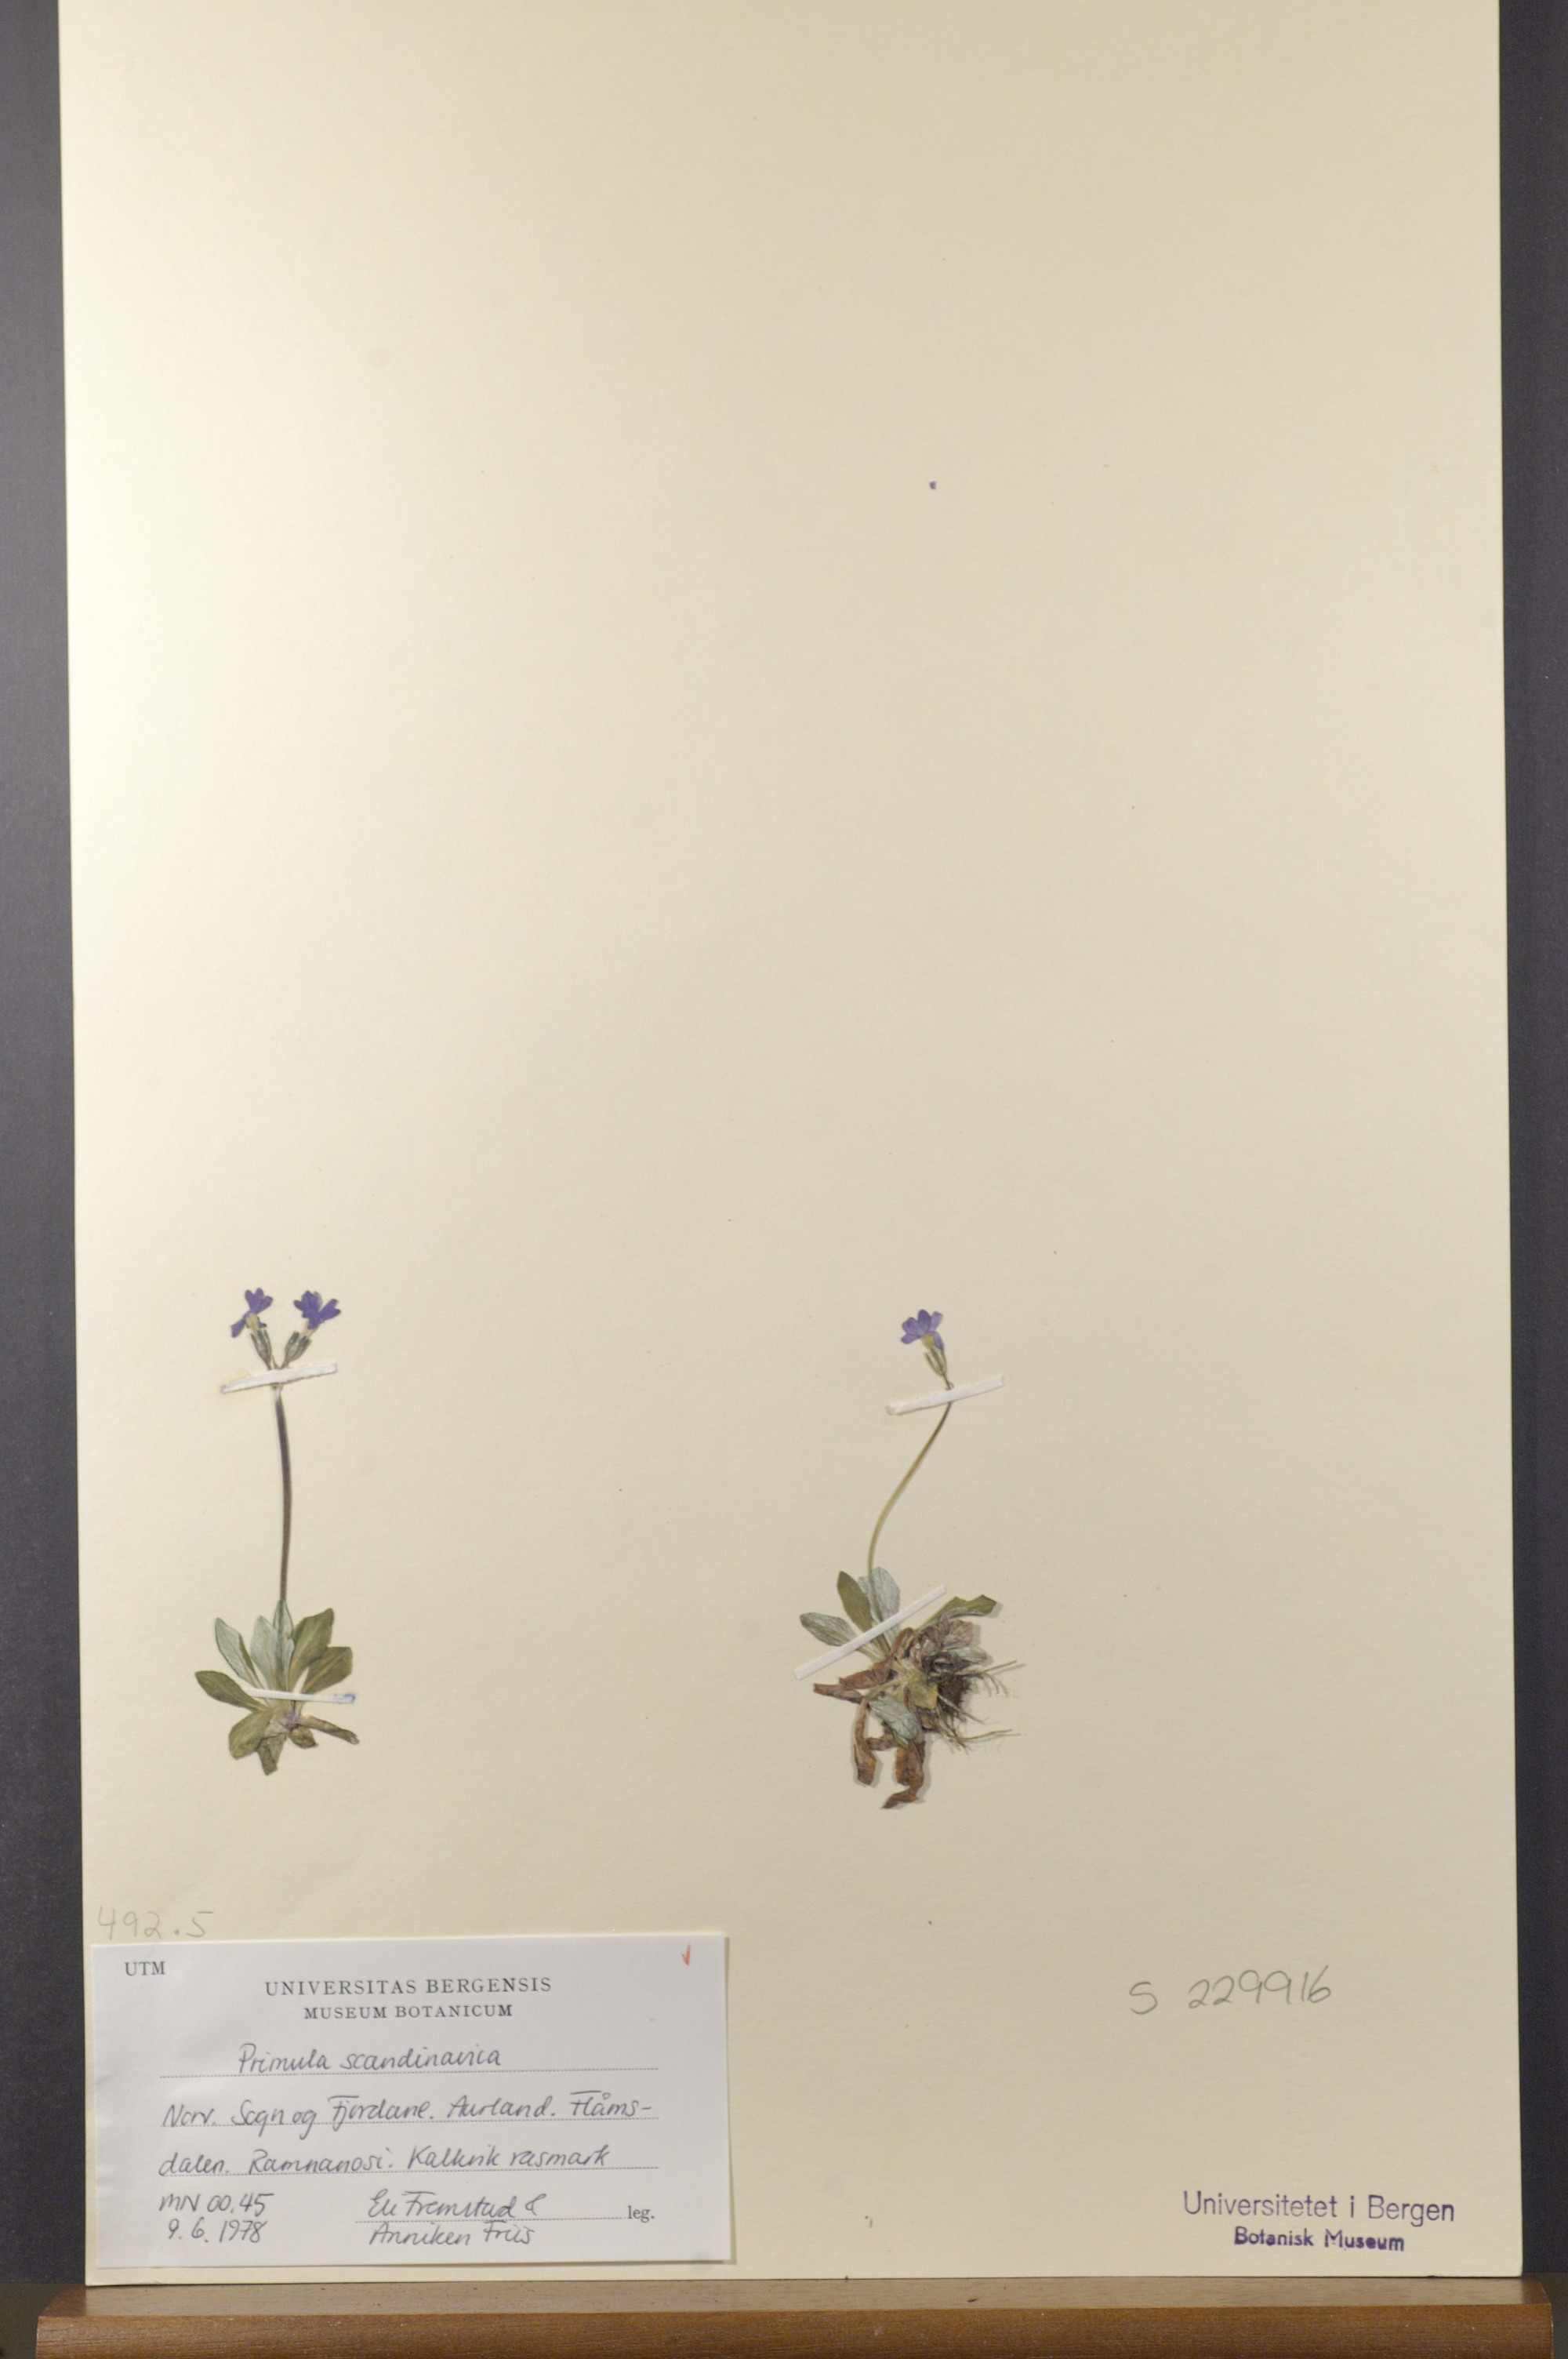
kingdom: Plantae
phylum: Tracheophyta
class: Magnoliopsida
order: Ericales
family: Primulaceae
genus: Primula
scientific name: Primula scandinavica
